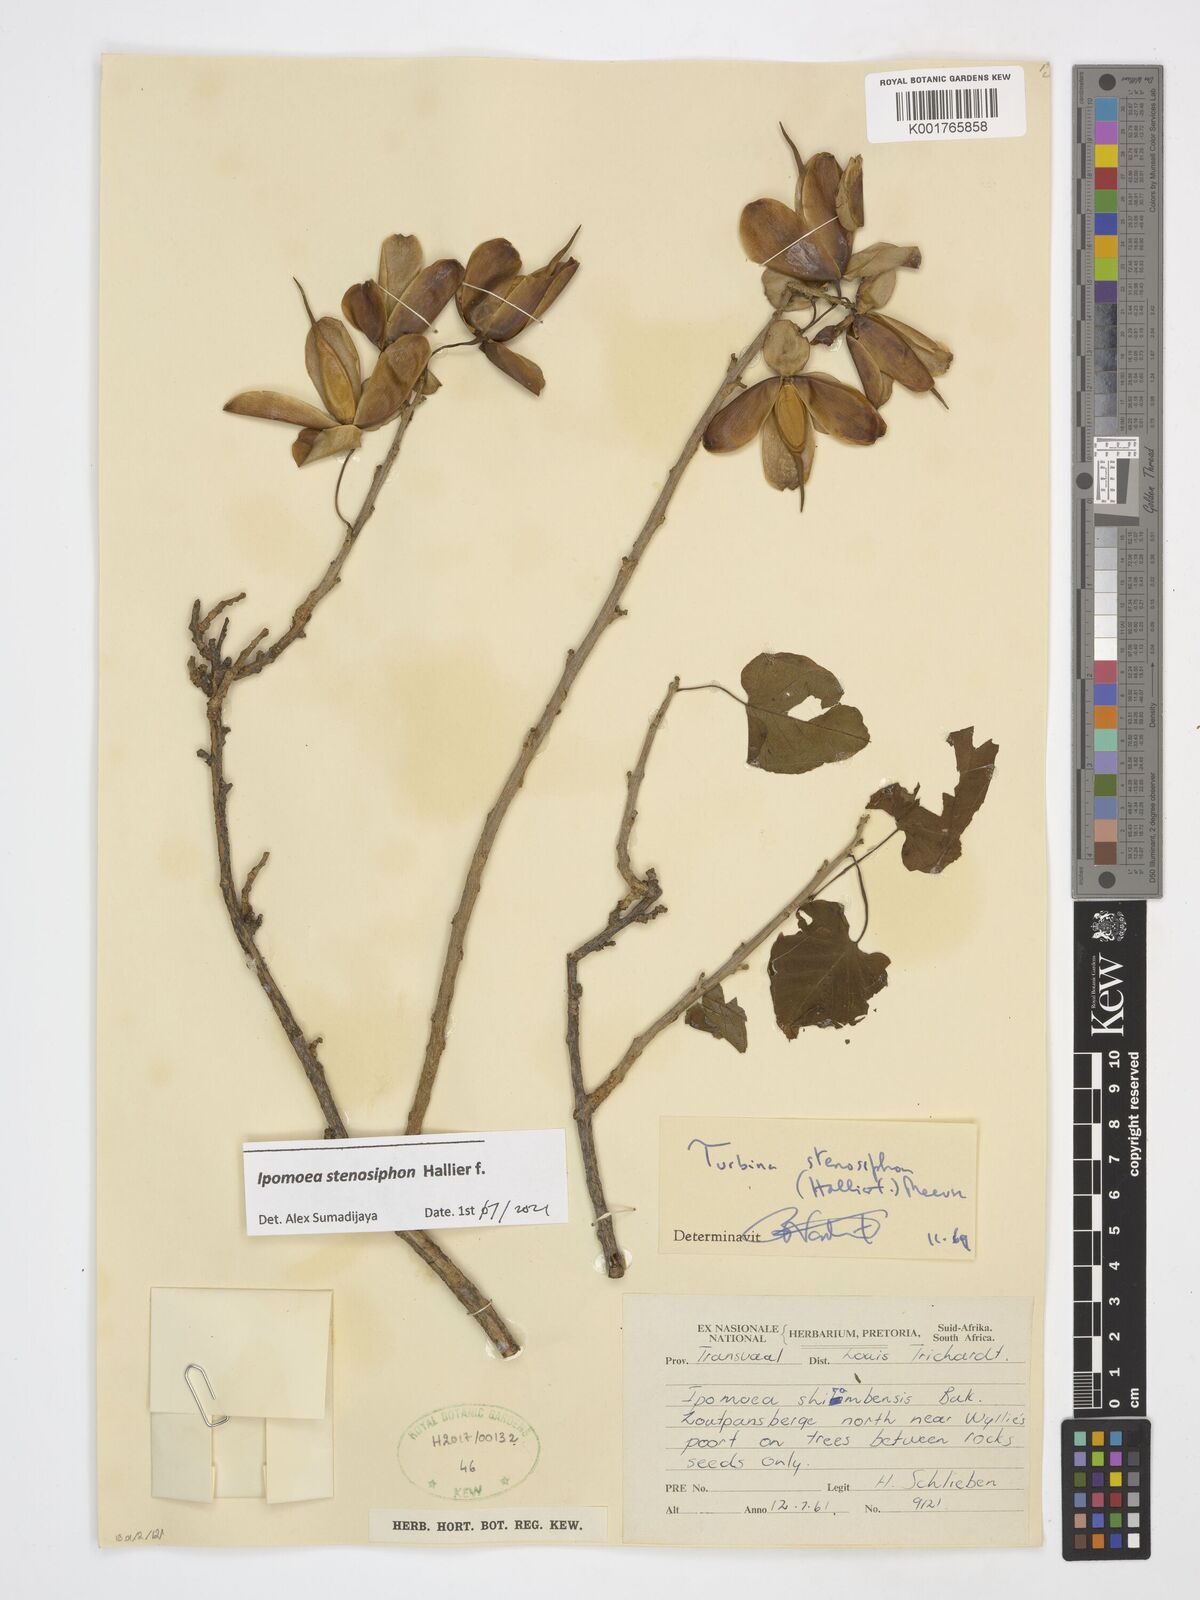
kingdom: Plantae
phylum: Tracheophyta
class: Magnoliopsida
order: Solanales
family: Convolvulaceae
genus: Ipomoea
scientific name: Ipomoea stenosiphon
